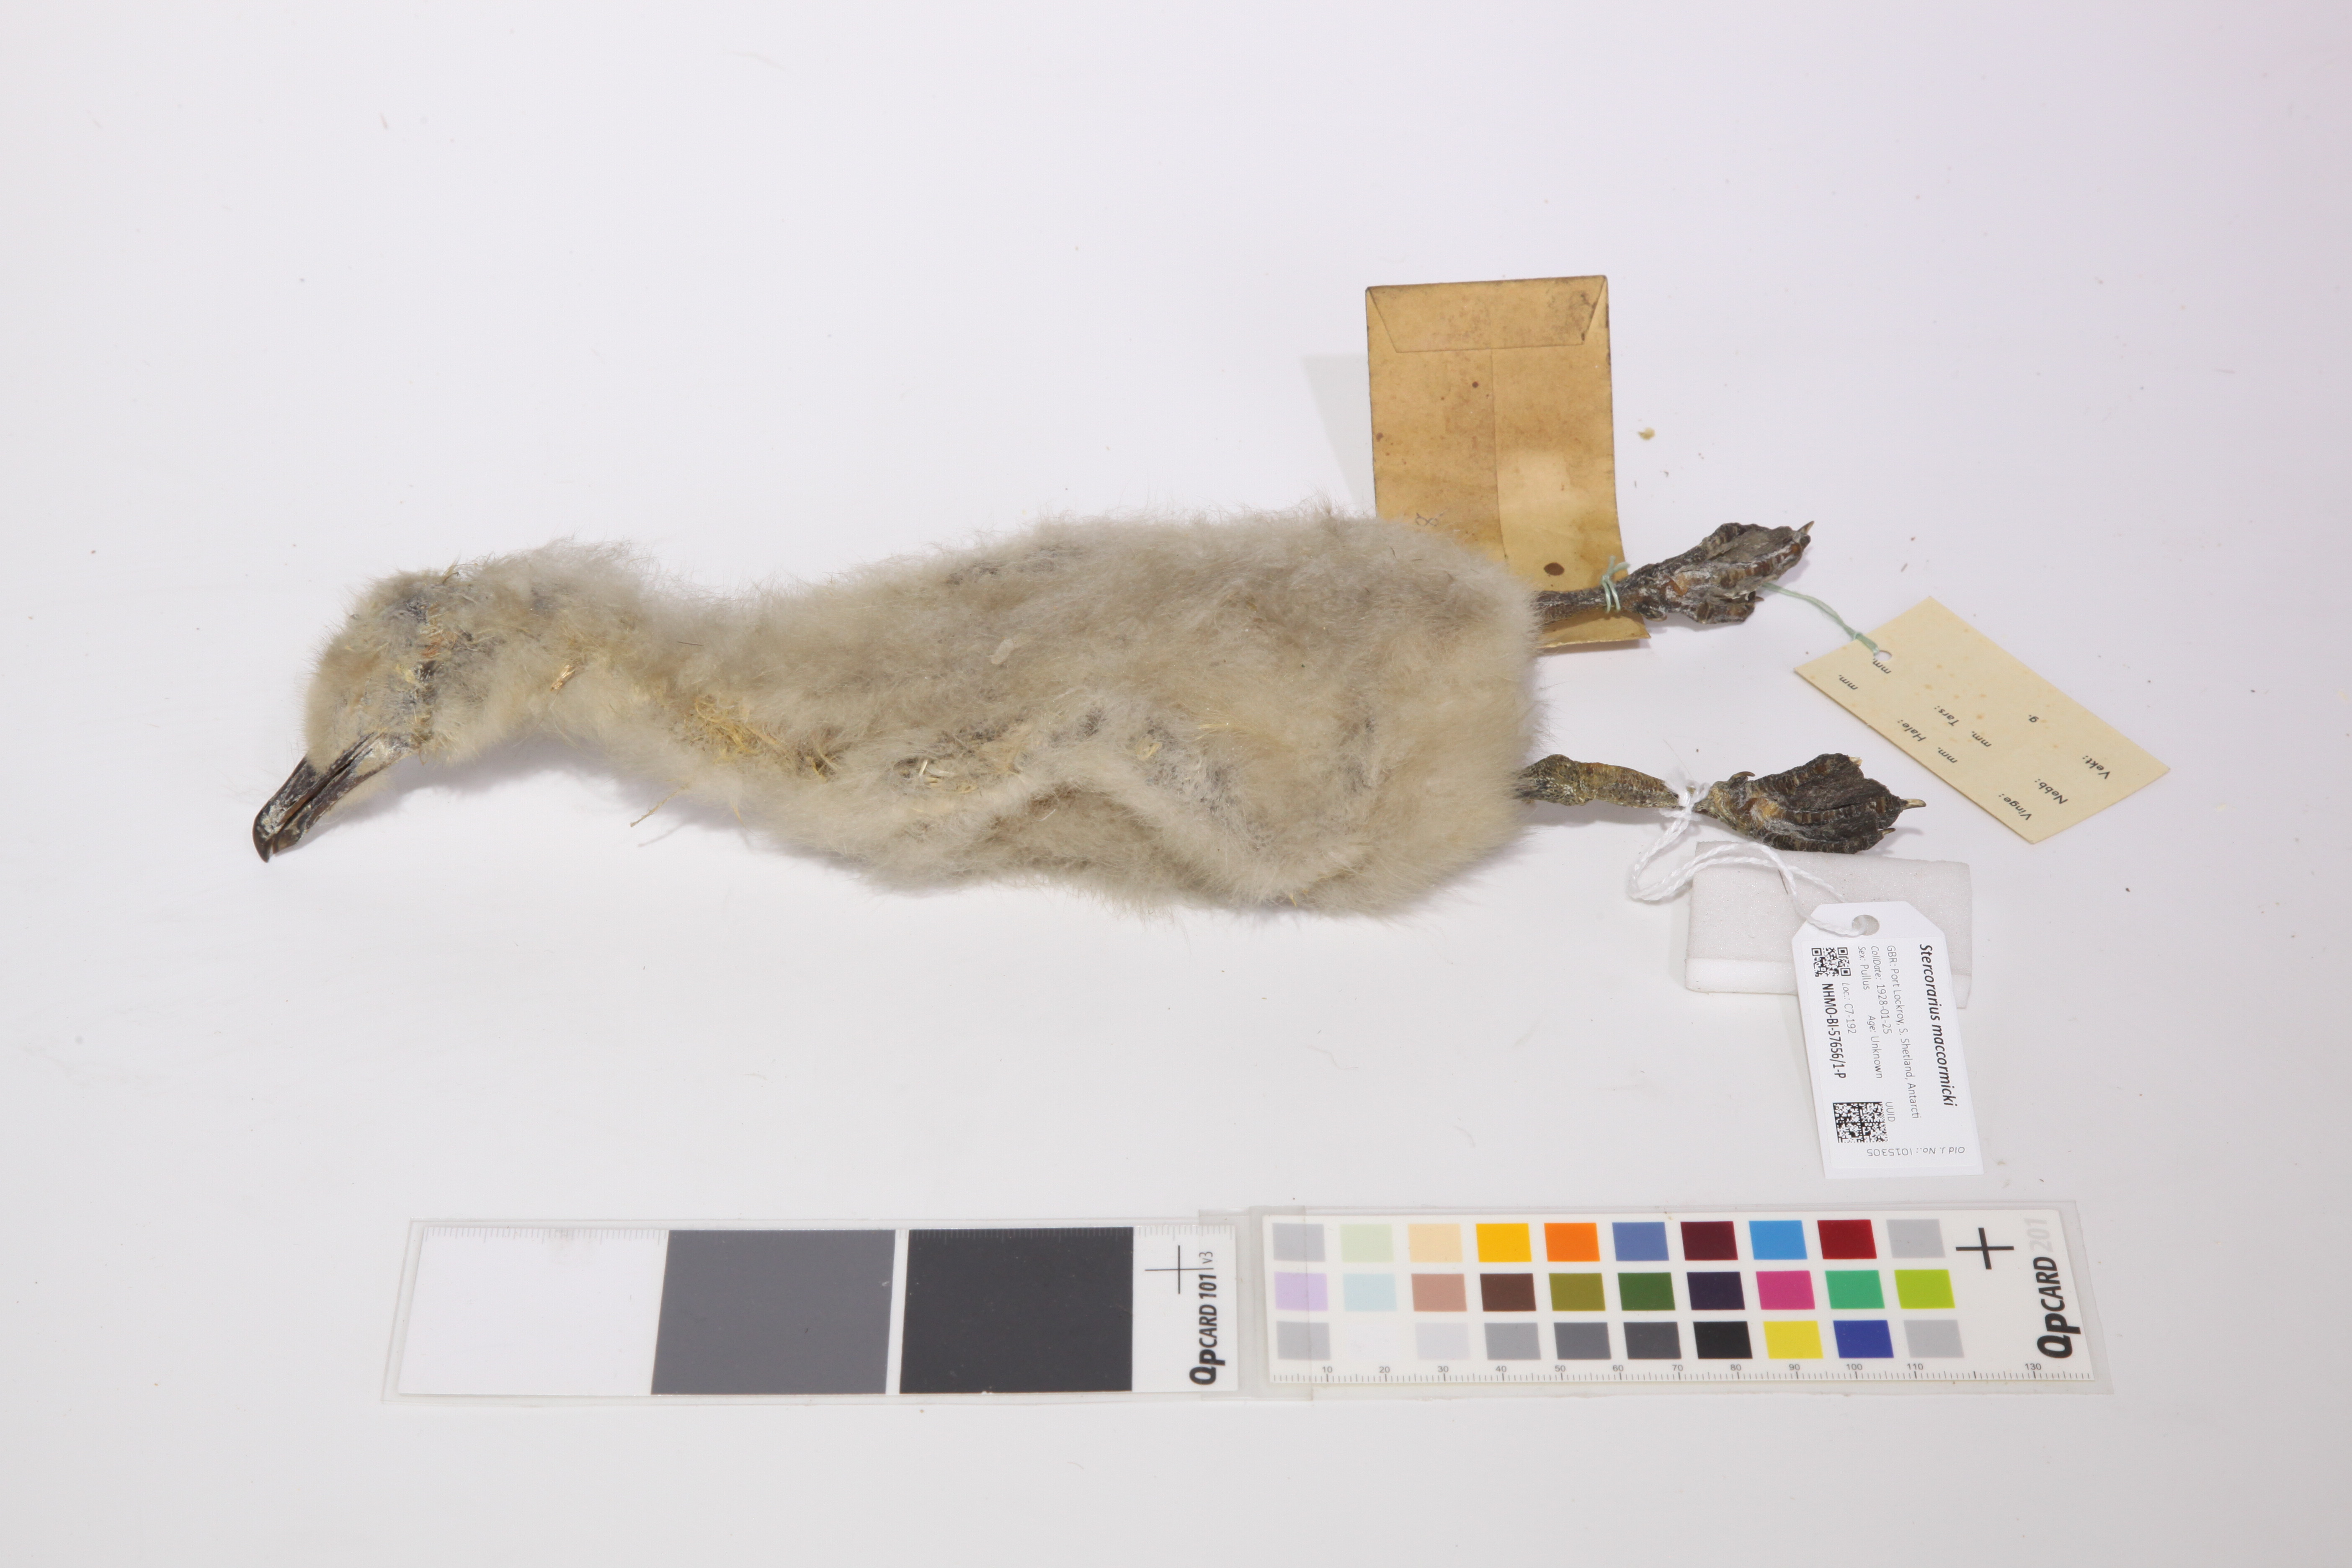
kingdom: Animalia
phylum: Chordata
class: Aves
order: Charadriiformes
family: Stercorariidae
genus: Stercorarius
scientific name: Stercorarius maccormicki
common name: South polar skua
